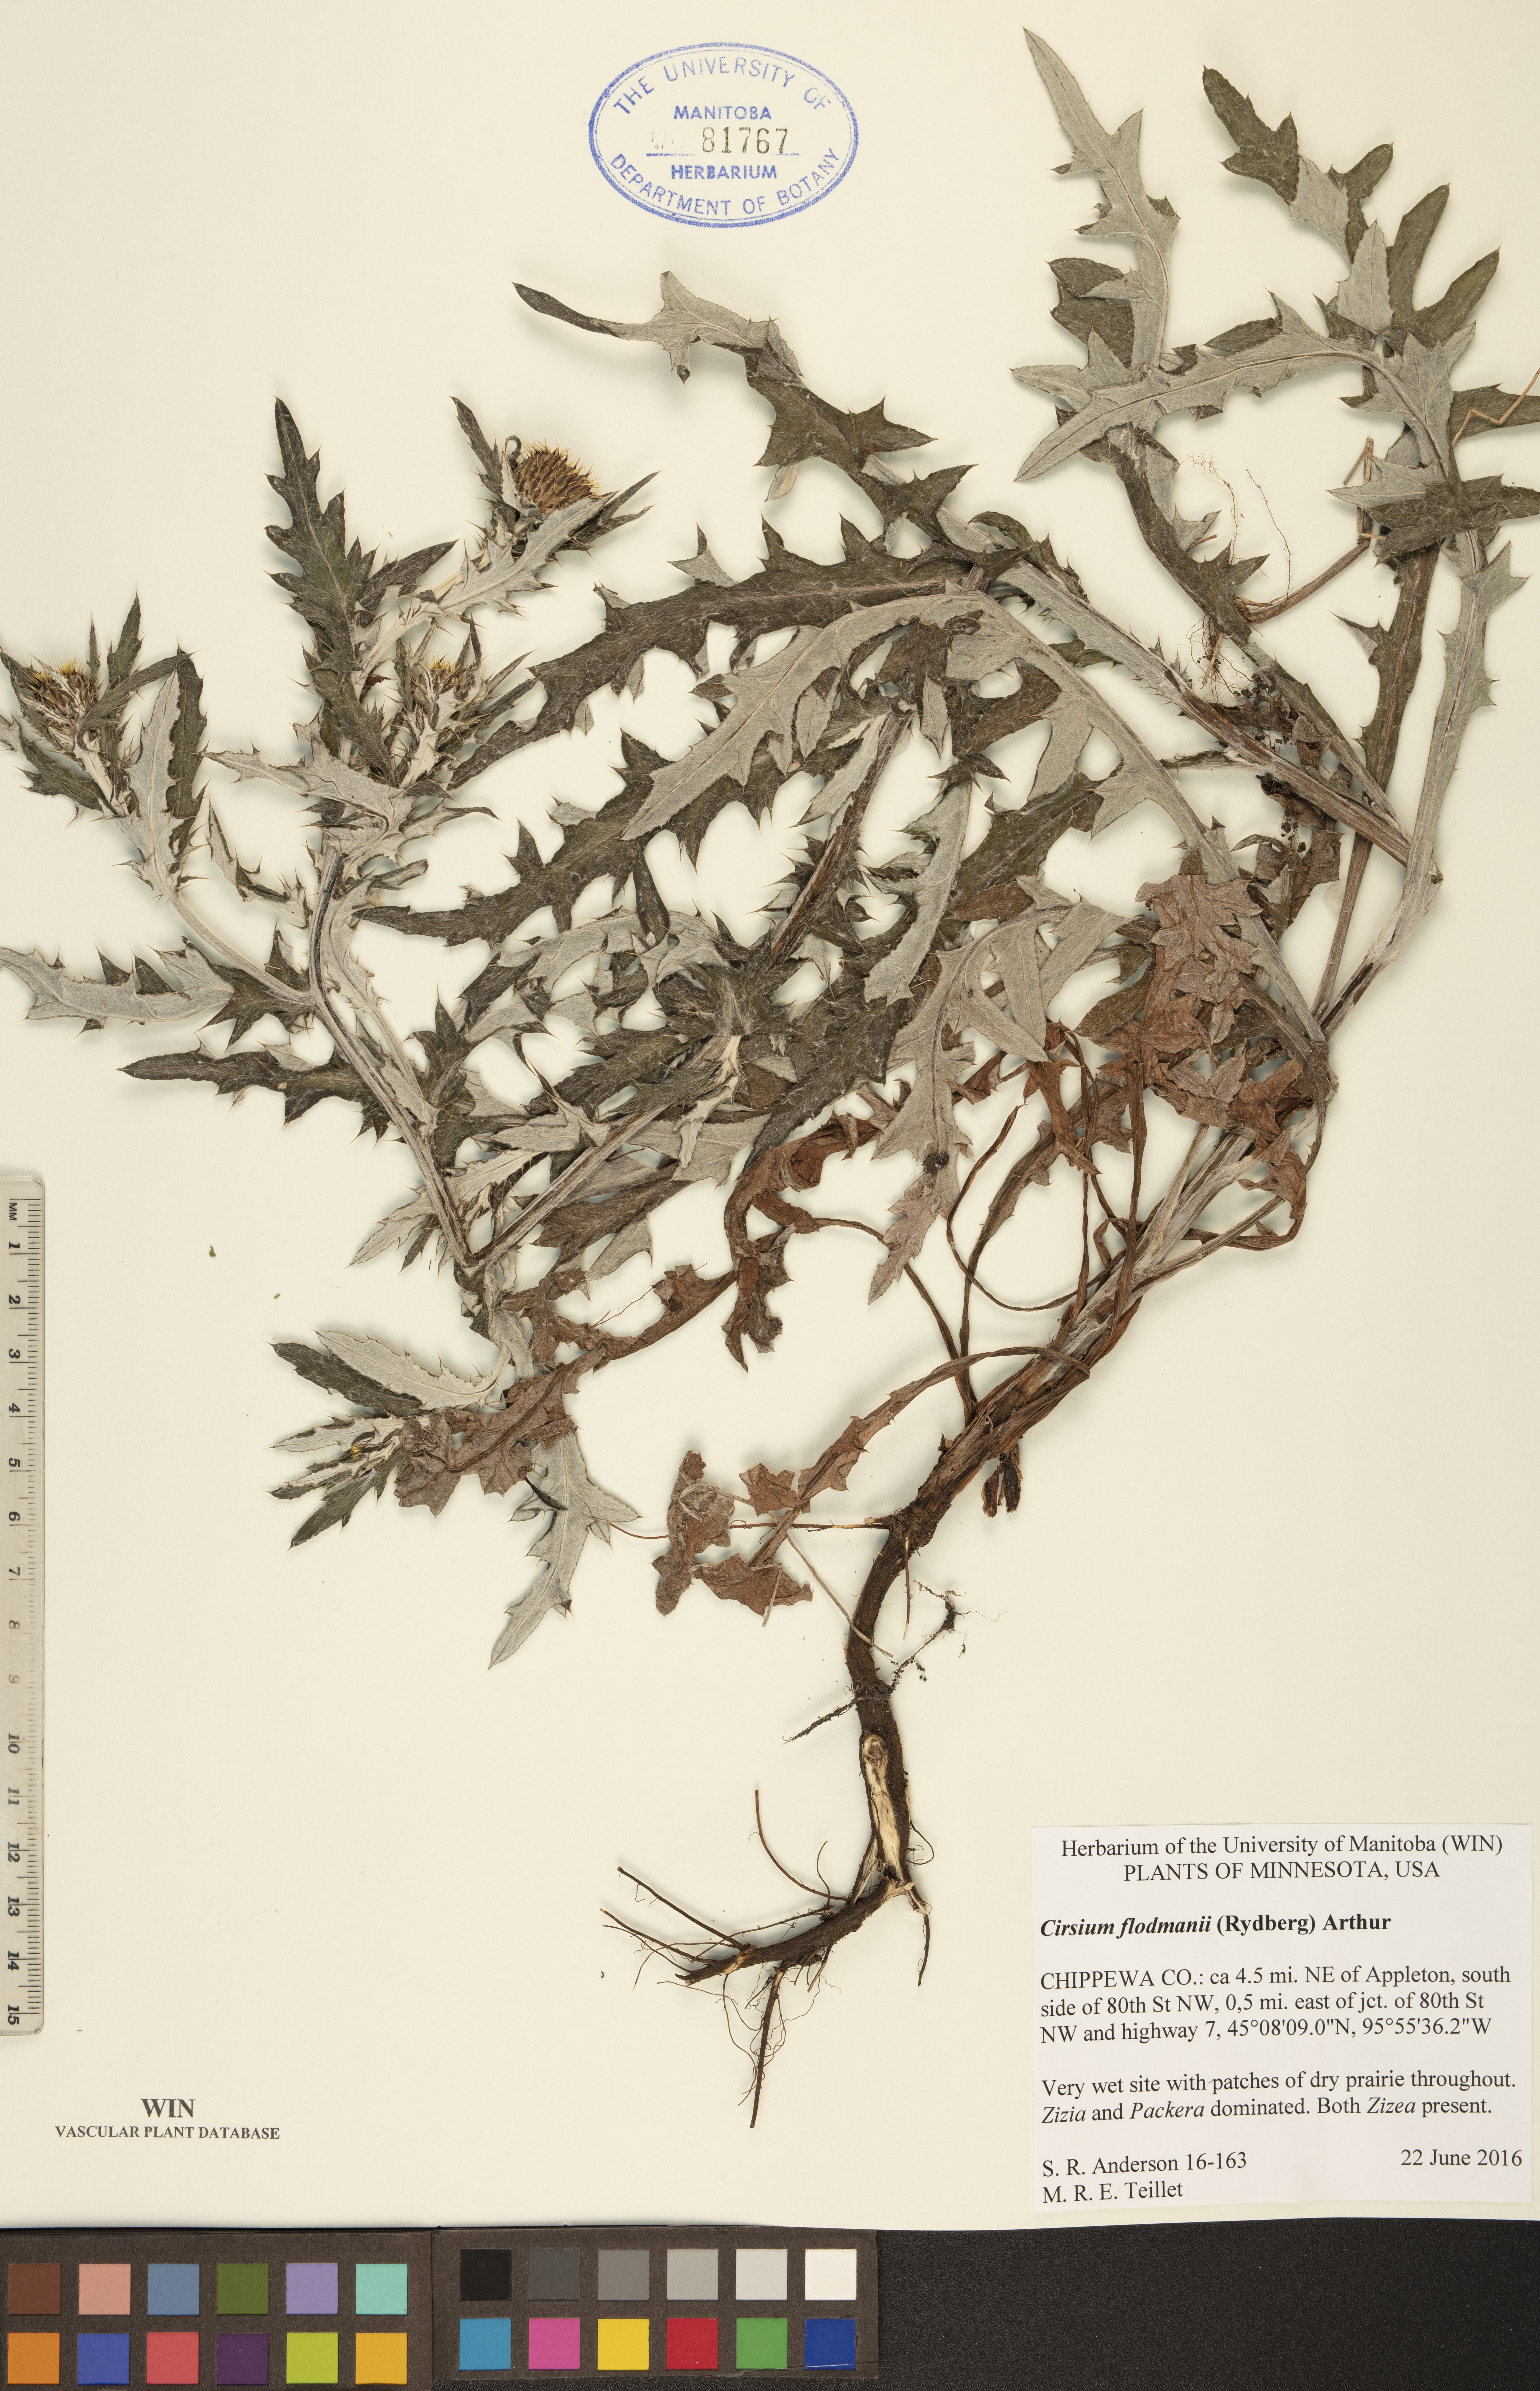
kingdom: Plantae
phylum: Tracheophyta
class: Magnoliopsida
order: Asterales
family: Asteraceae
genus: Cirsium
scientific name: Cirsium flodmanii
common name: Flodman's thistle
